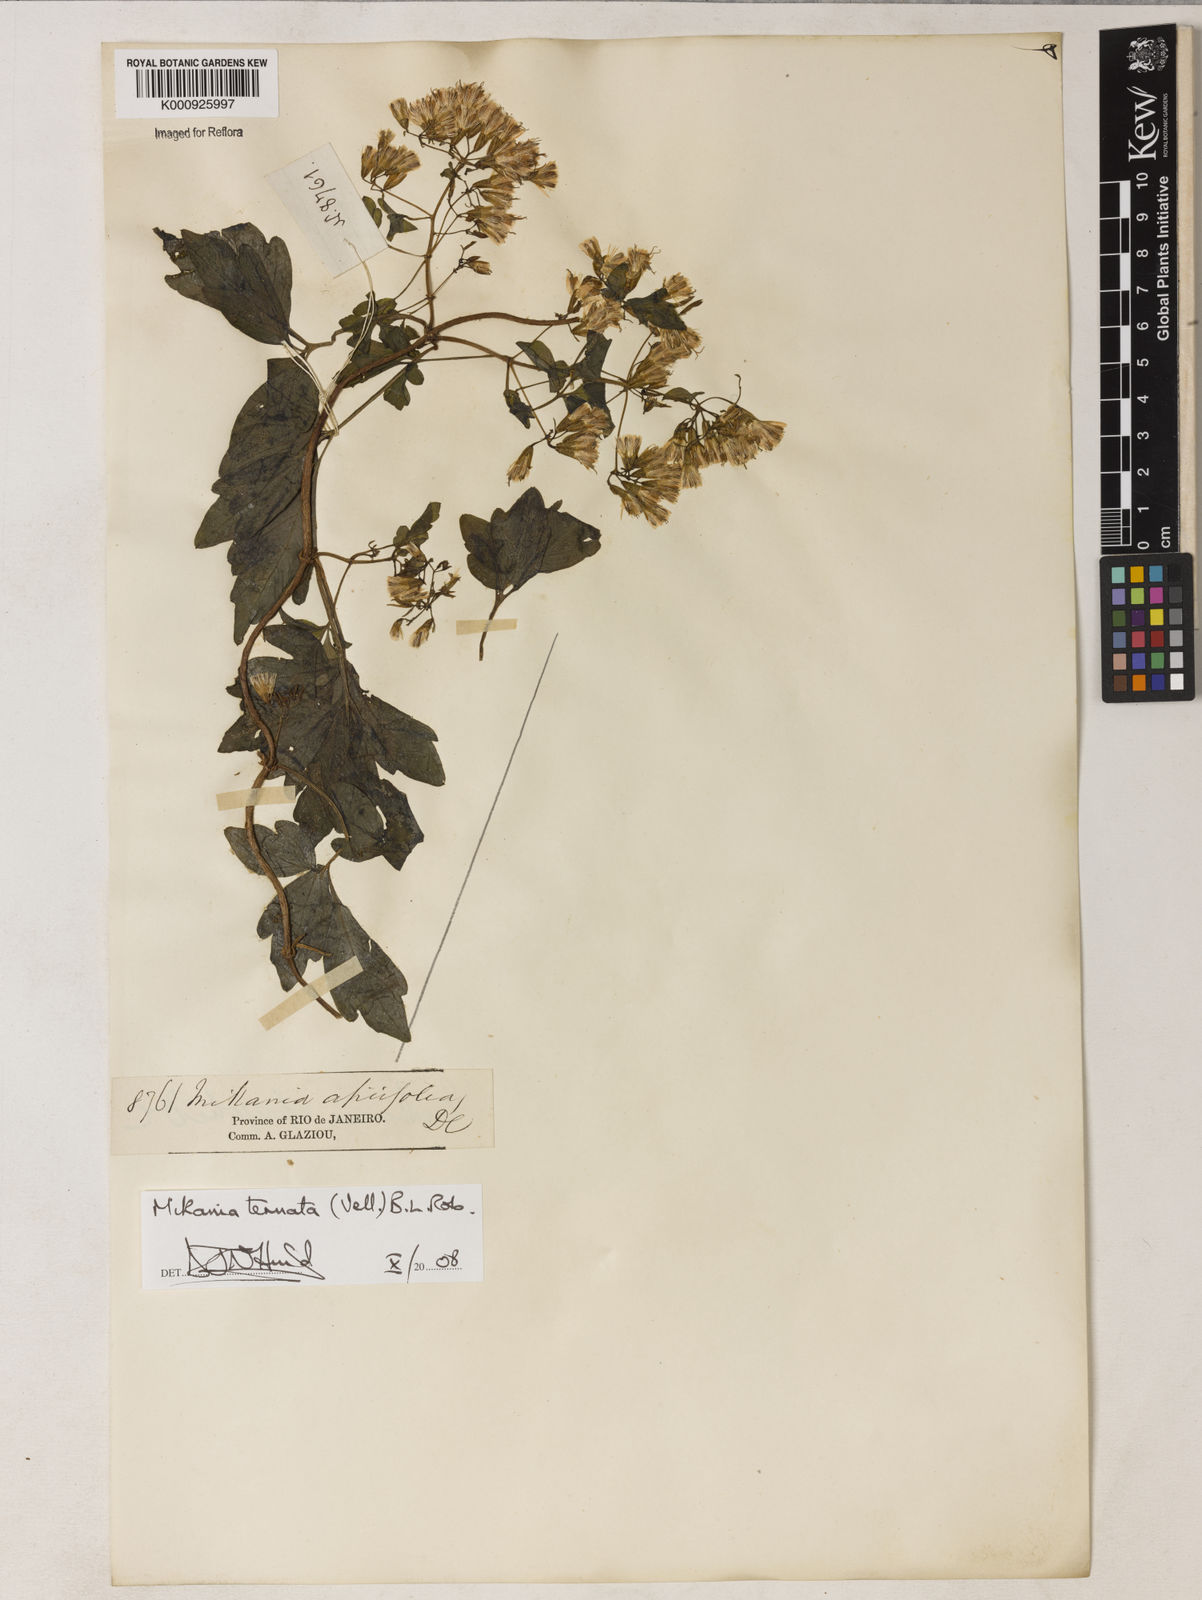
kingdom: Plantae
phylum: Tracheophyta
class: Magnoliopsida
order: Asterales
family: Asteraceae
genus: Mikania
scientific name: Mikania ternata
